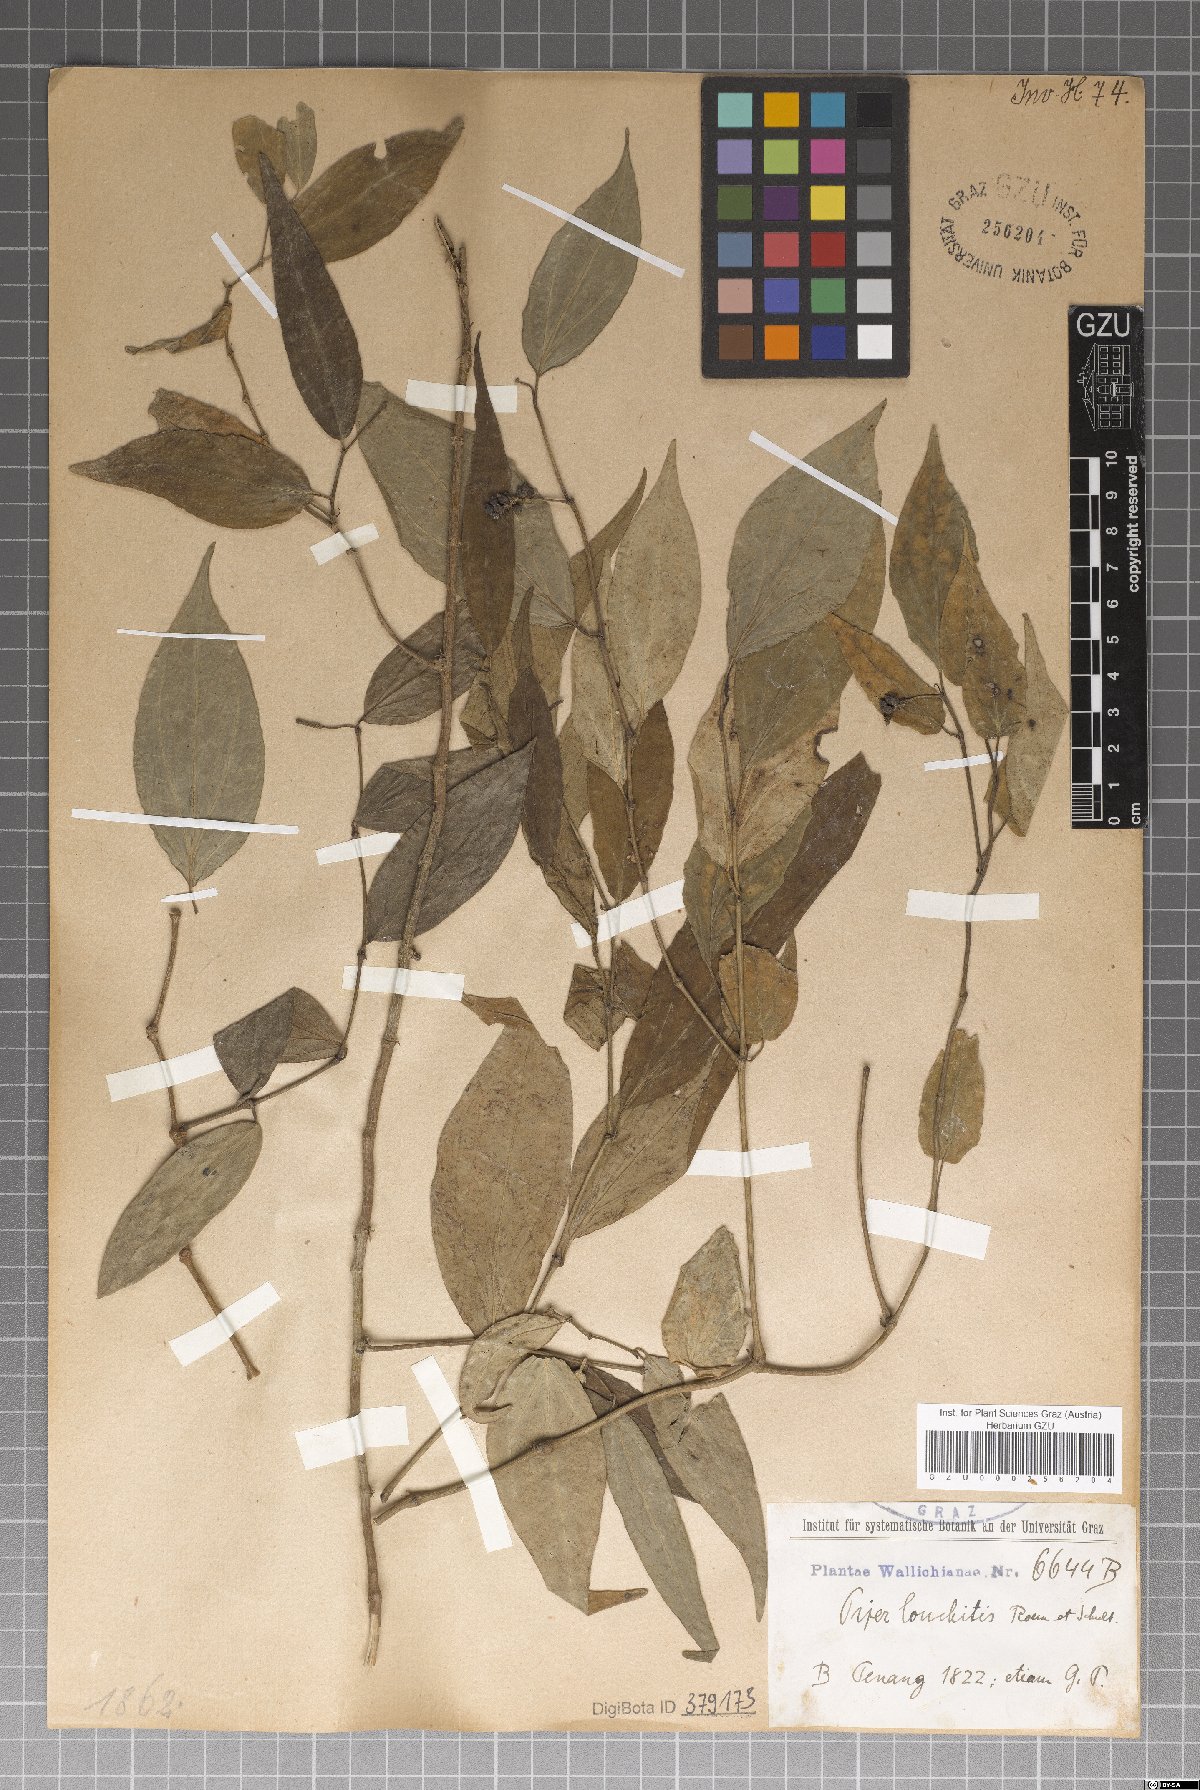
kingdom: Plantae
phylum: Tracheophyta
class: Magnoliopsida
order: Piperales
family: Piperaceae
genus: Piper
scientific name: Piper lonchites
